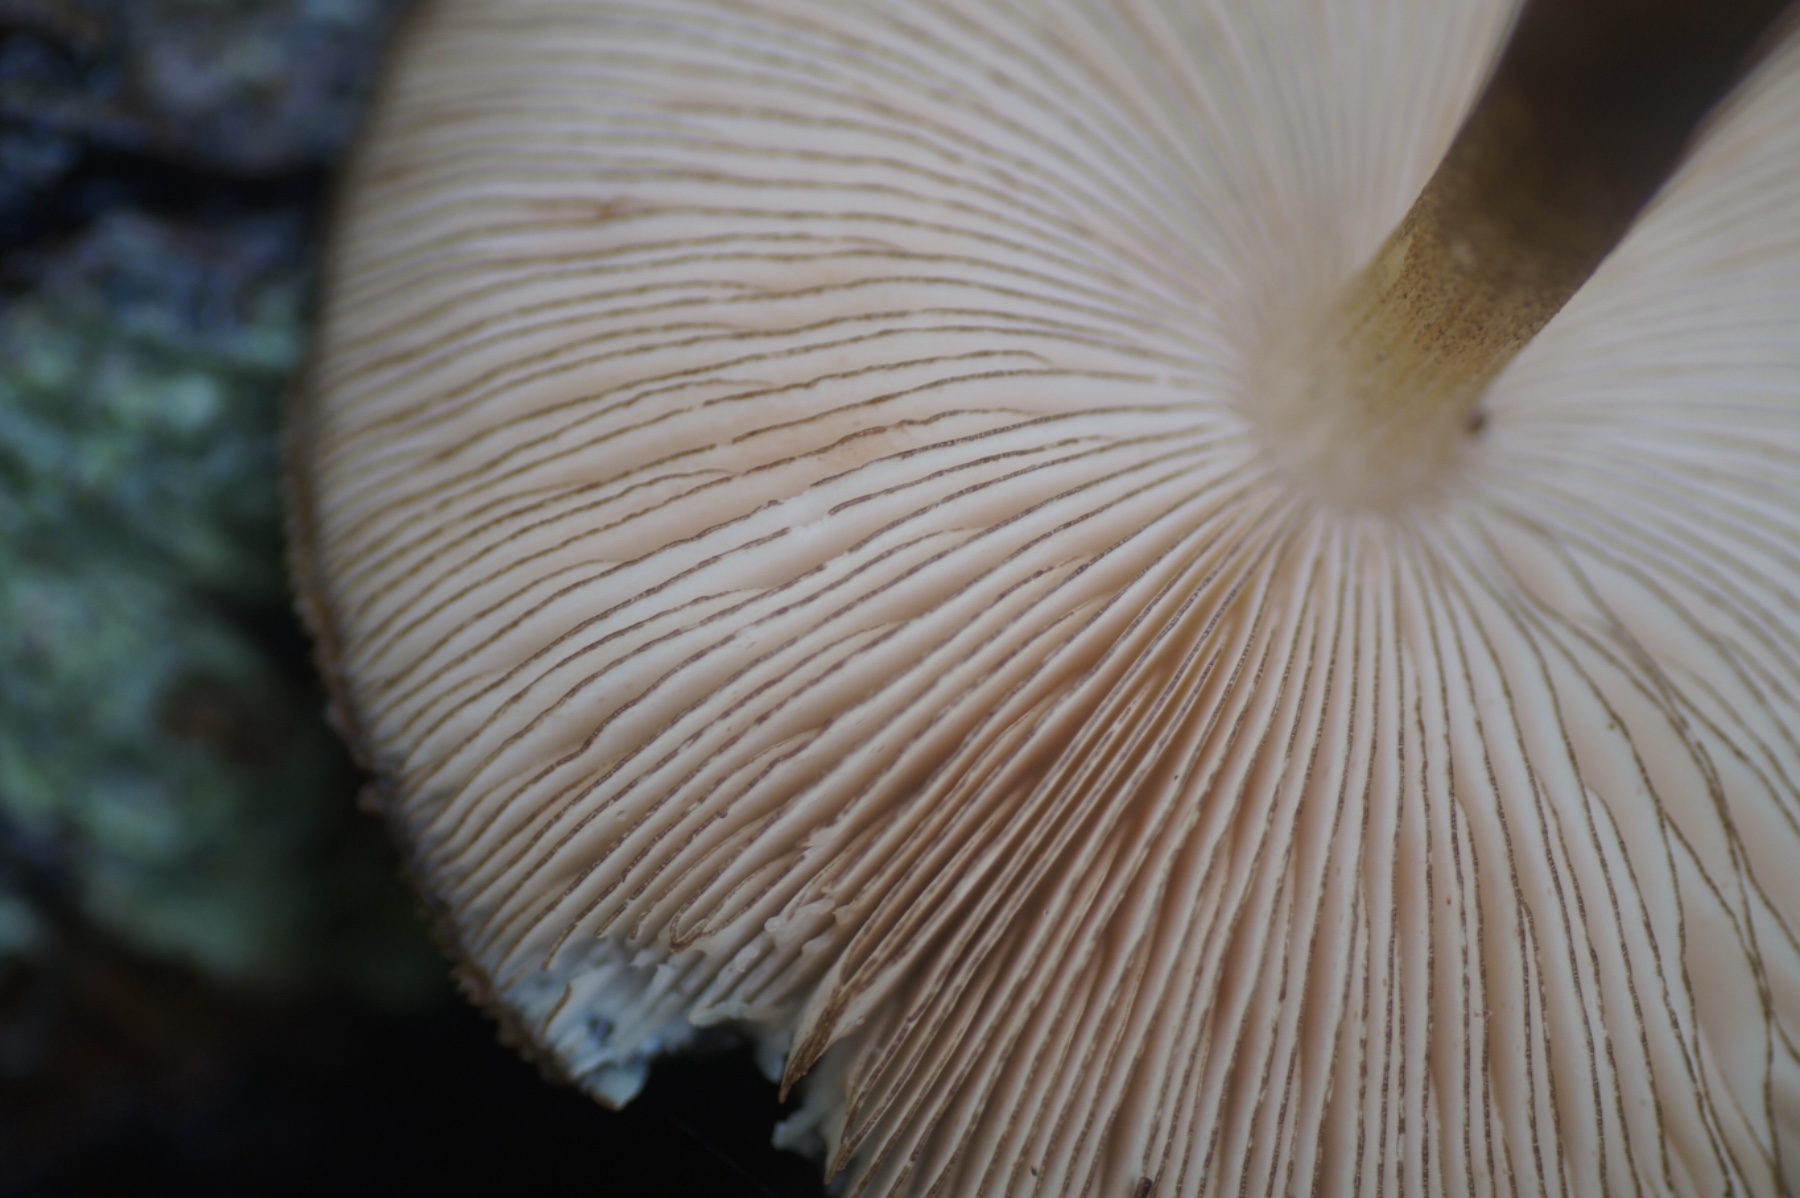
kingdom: Fungi
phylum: Basidiomycota
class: Agaricomycetes
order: Agaricales
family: Pluteaceae
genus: Pluteus
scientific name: Pluteus umbrosus
